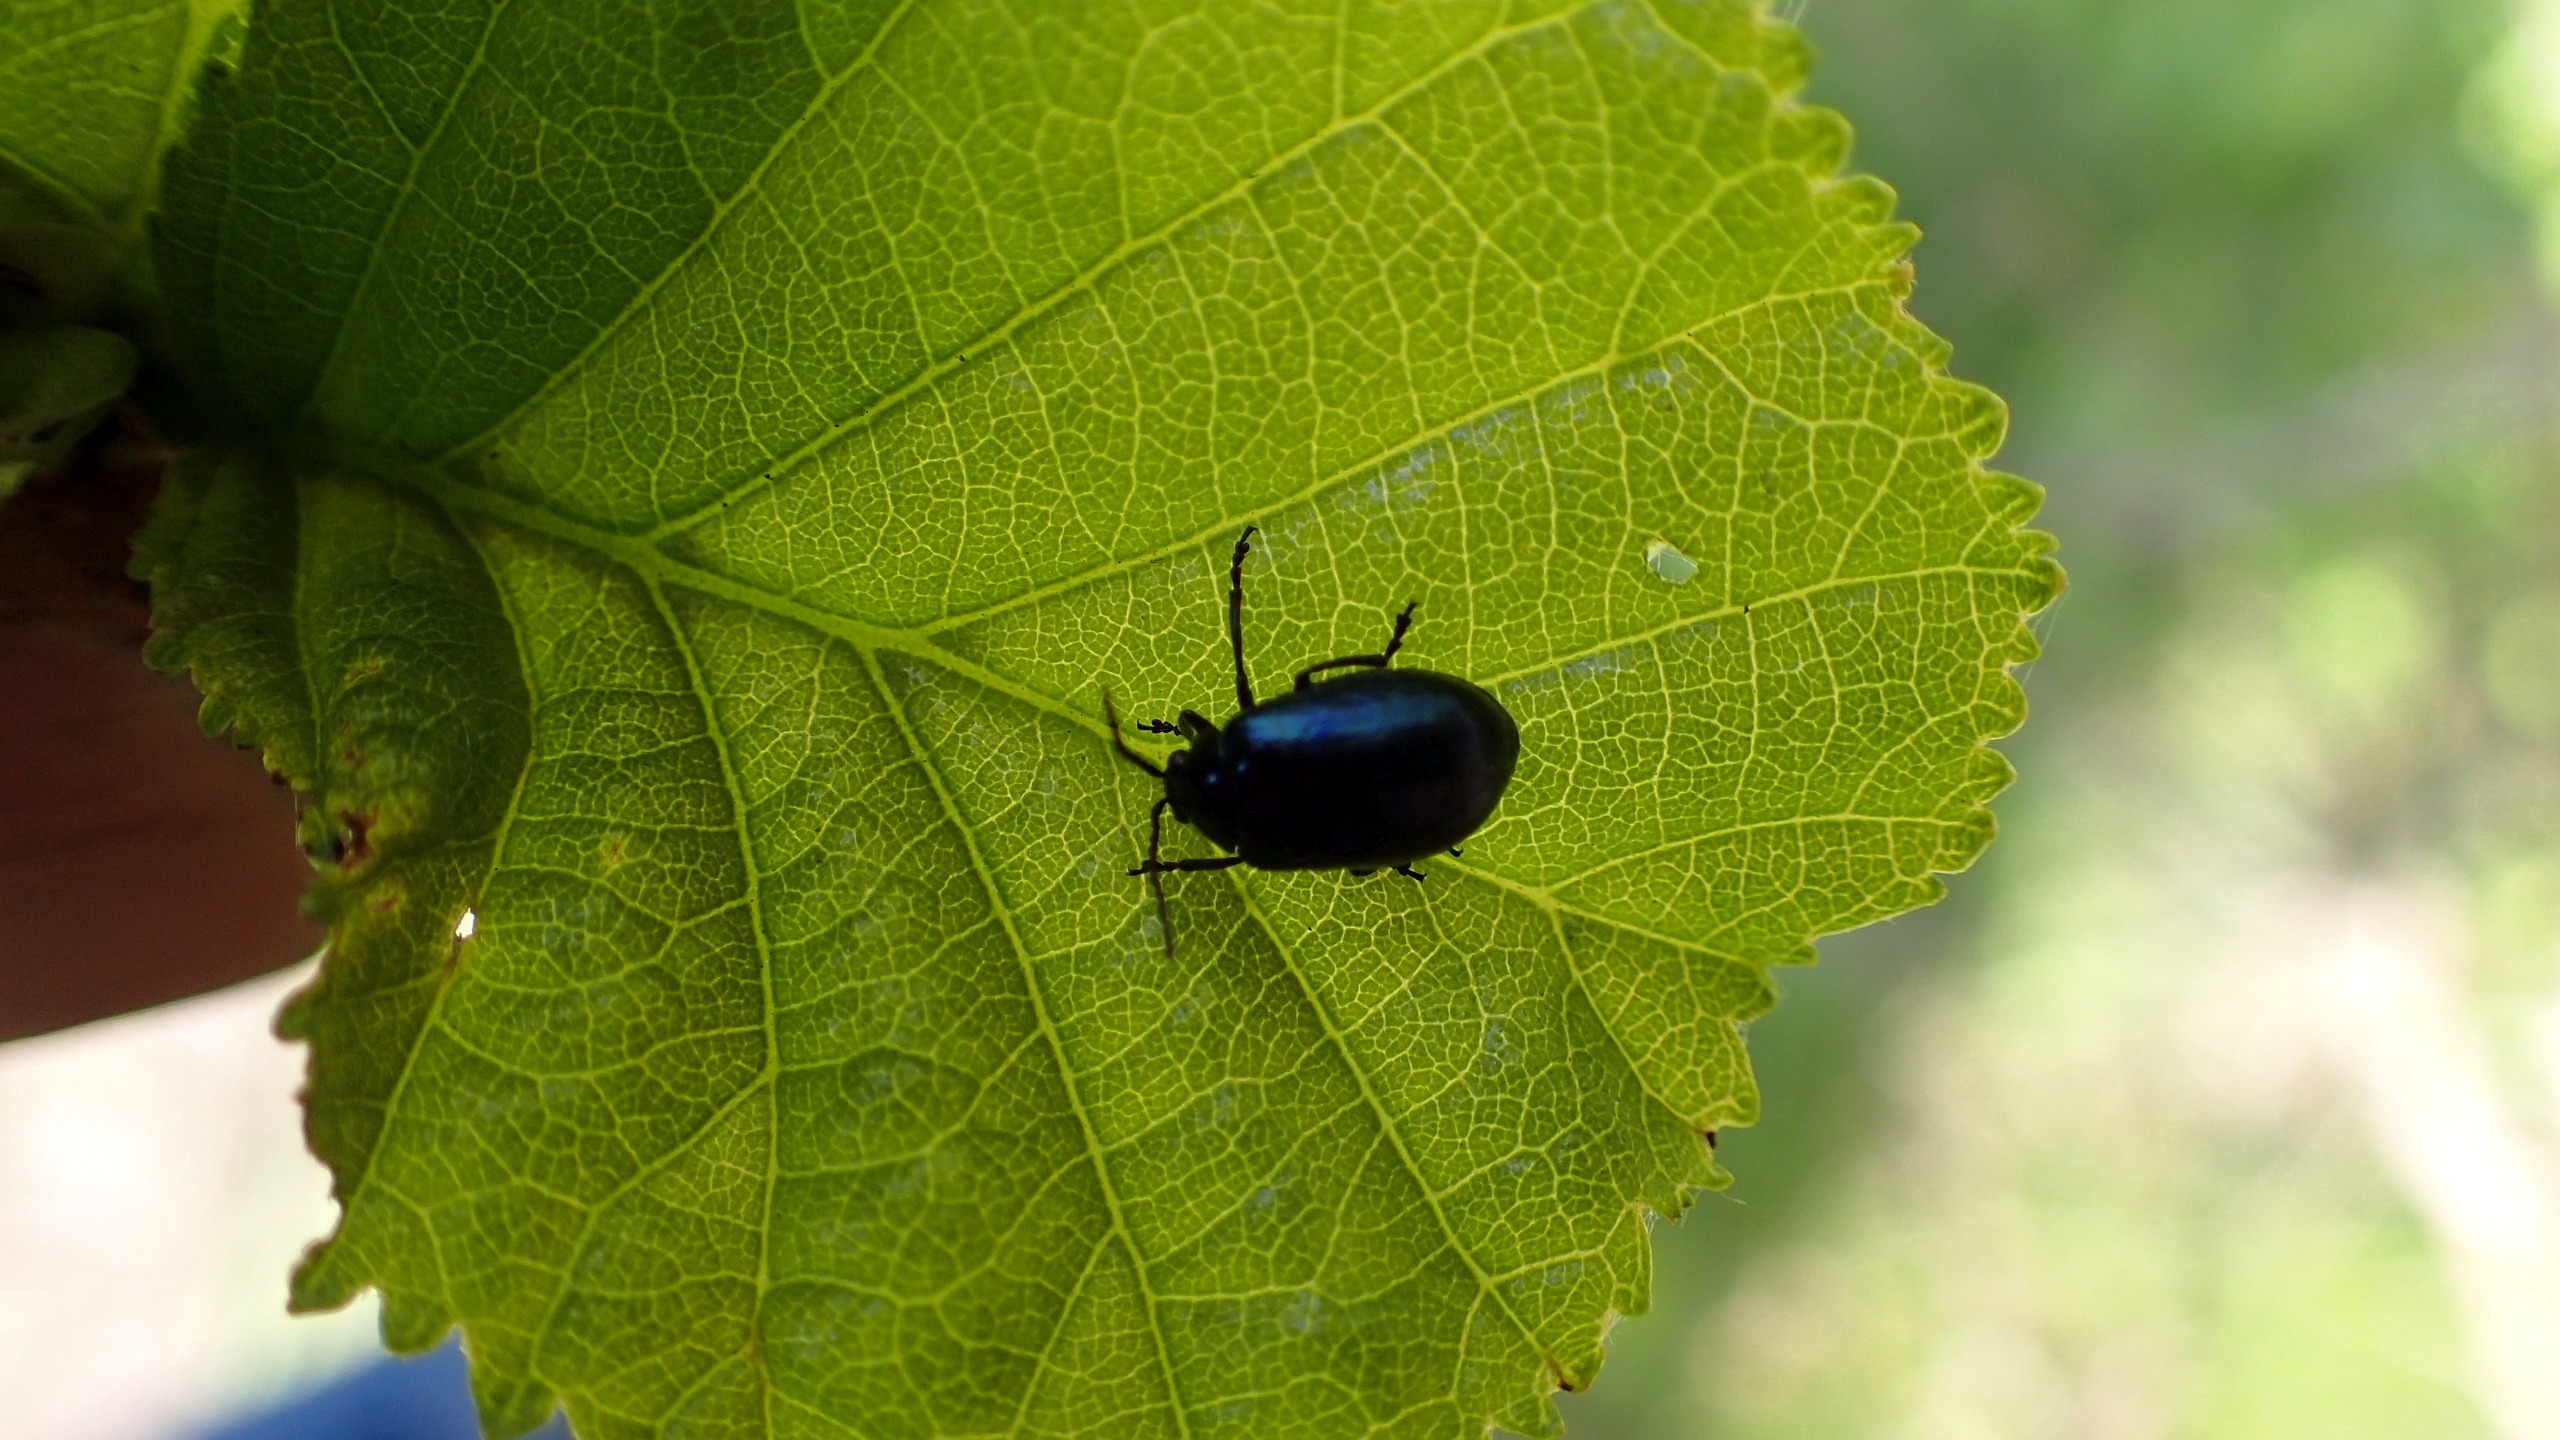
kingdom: Animalia
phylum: Arthropoda
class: Insecta
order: Coleoptera
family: Chrysomelidae
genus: Agelastica
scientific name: Agelastica alni
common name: Ellebladbille
